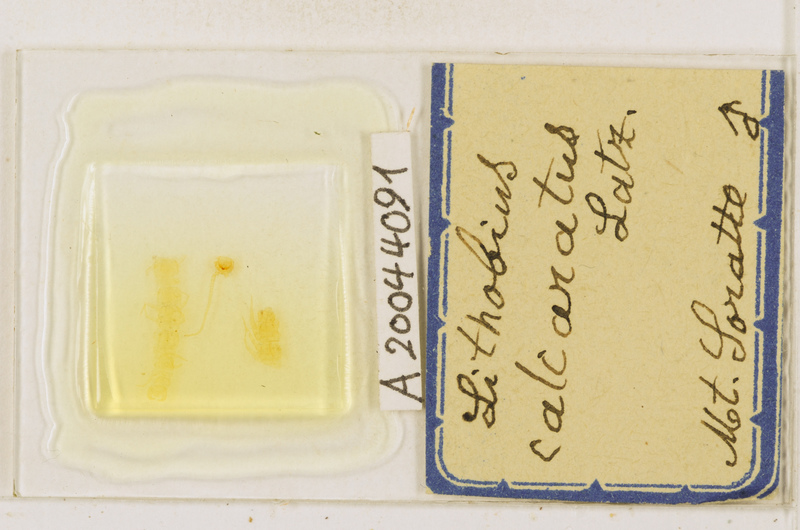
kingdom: Animalia
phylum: Arthropoda
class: Chilopoda
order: Lithobiomorpha
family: Lithobiidae
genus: Lithobius
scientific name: Lithobius calcaratus
